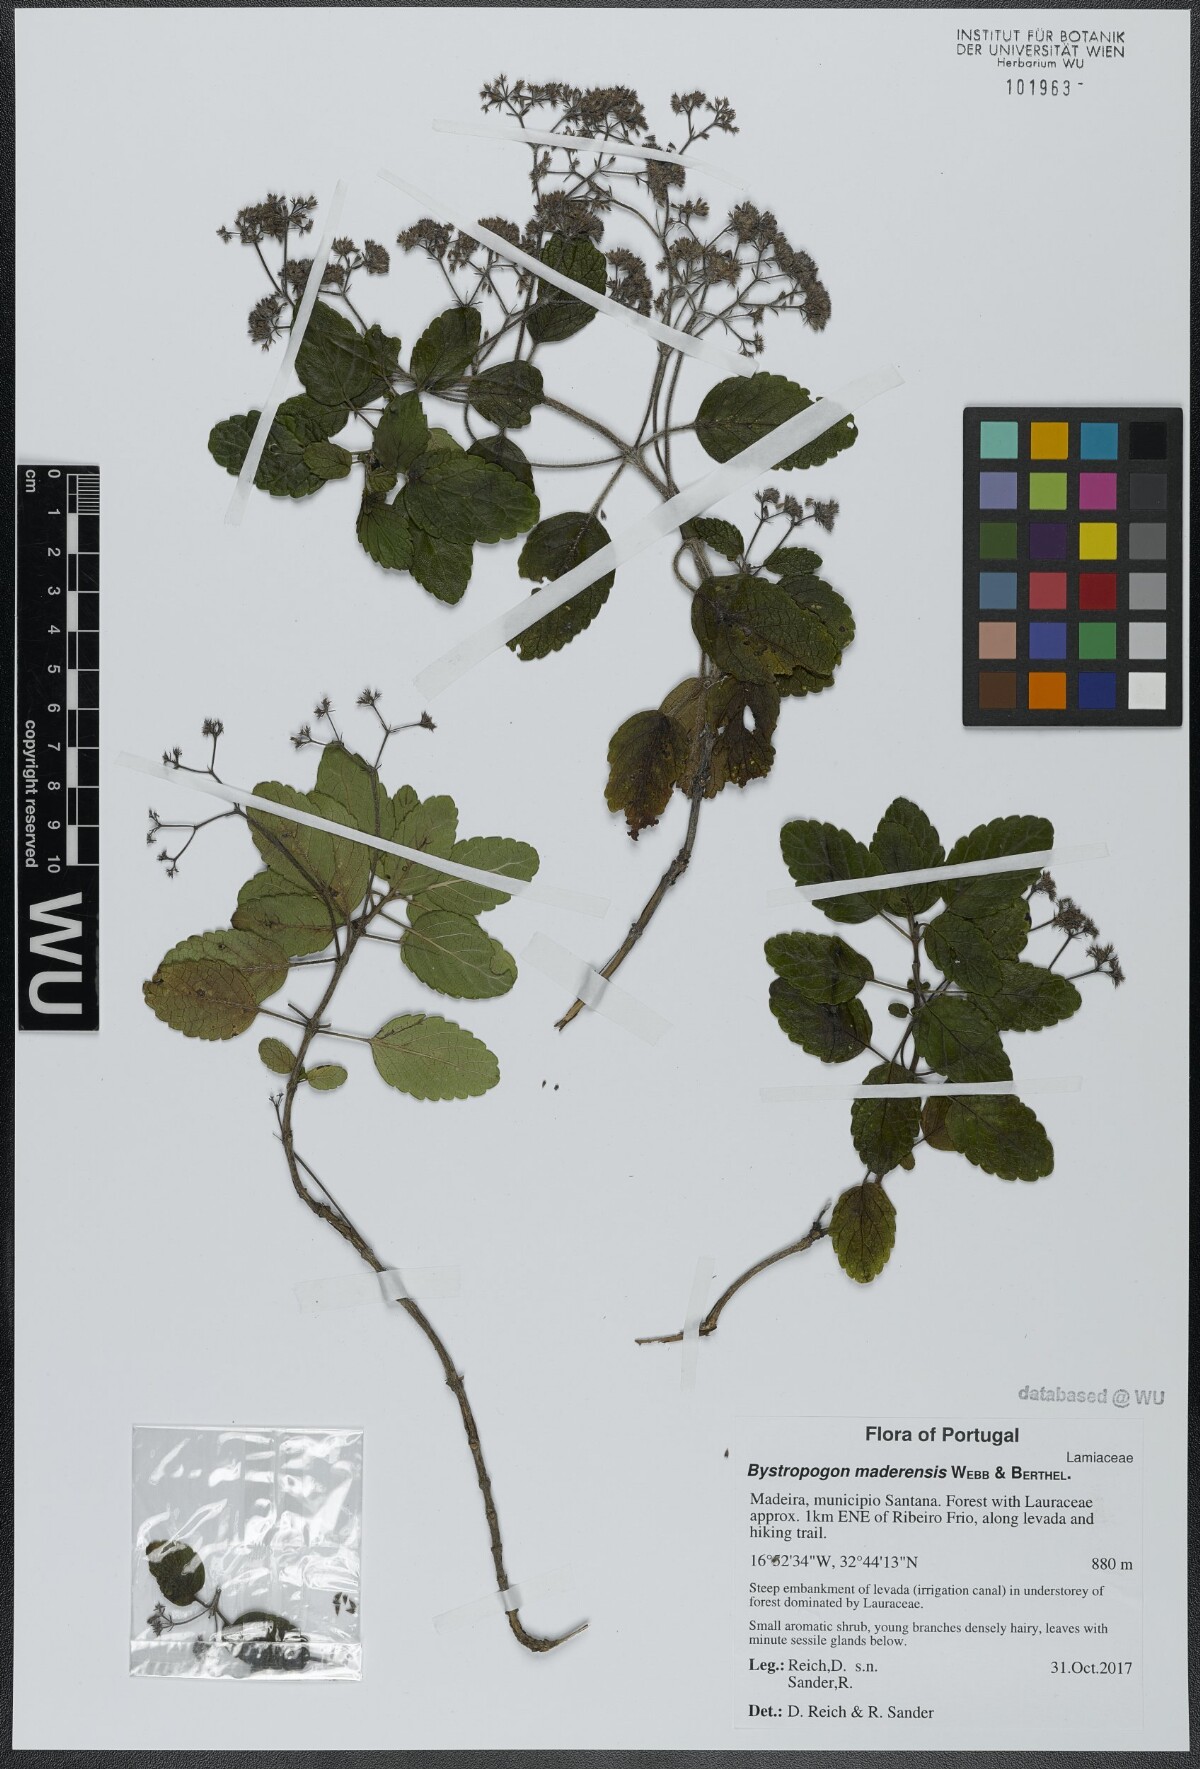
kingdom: Plantae
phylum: Tracheophyta
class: Magnoliopsida
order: Lamiales
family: Lamiaceae
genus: Bystropogon
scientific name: Bystropogon maderensis
